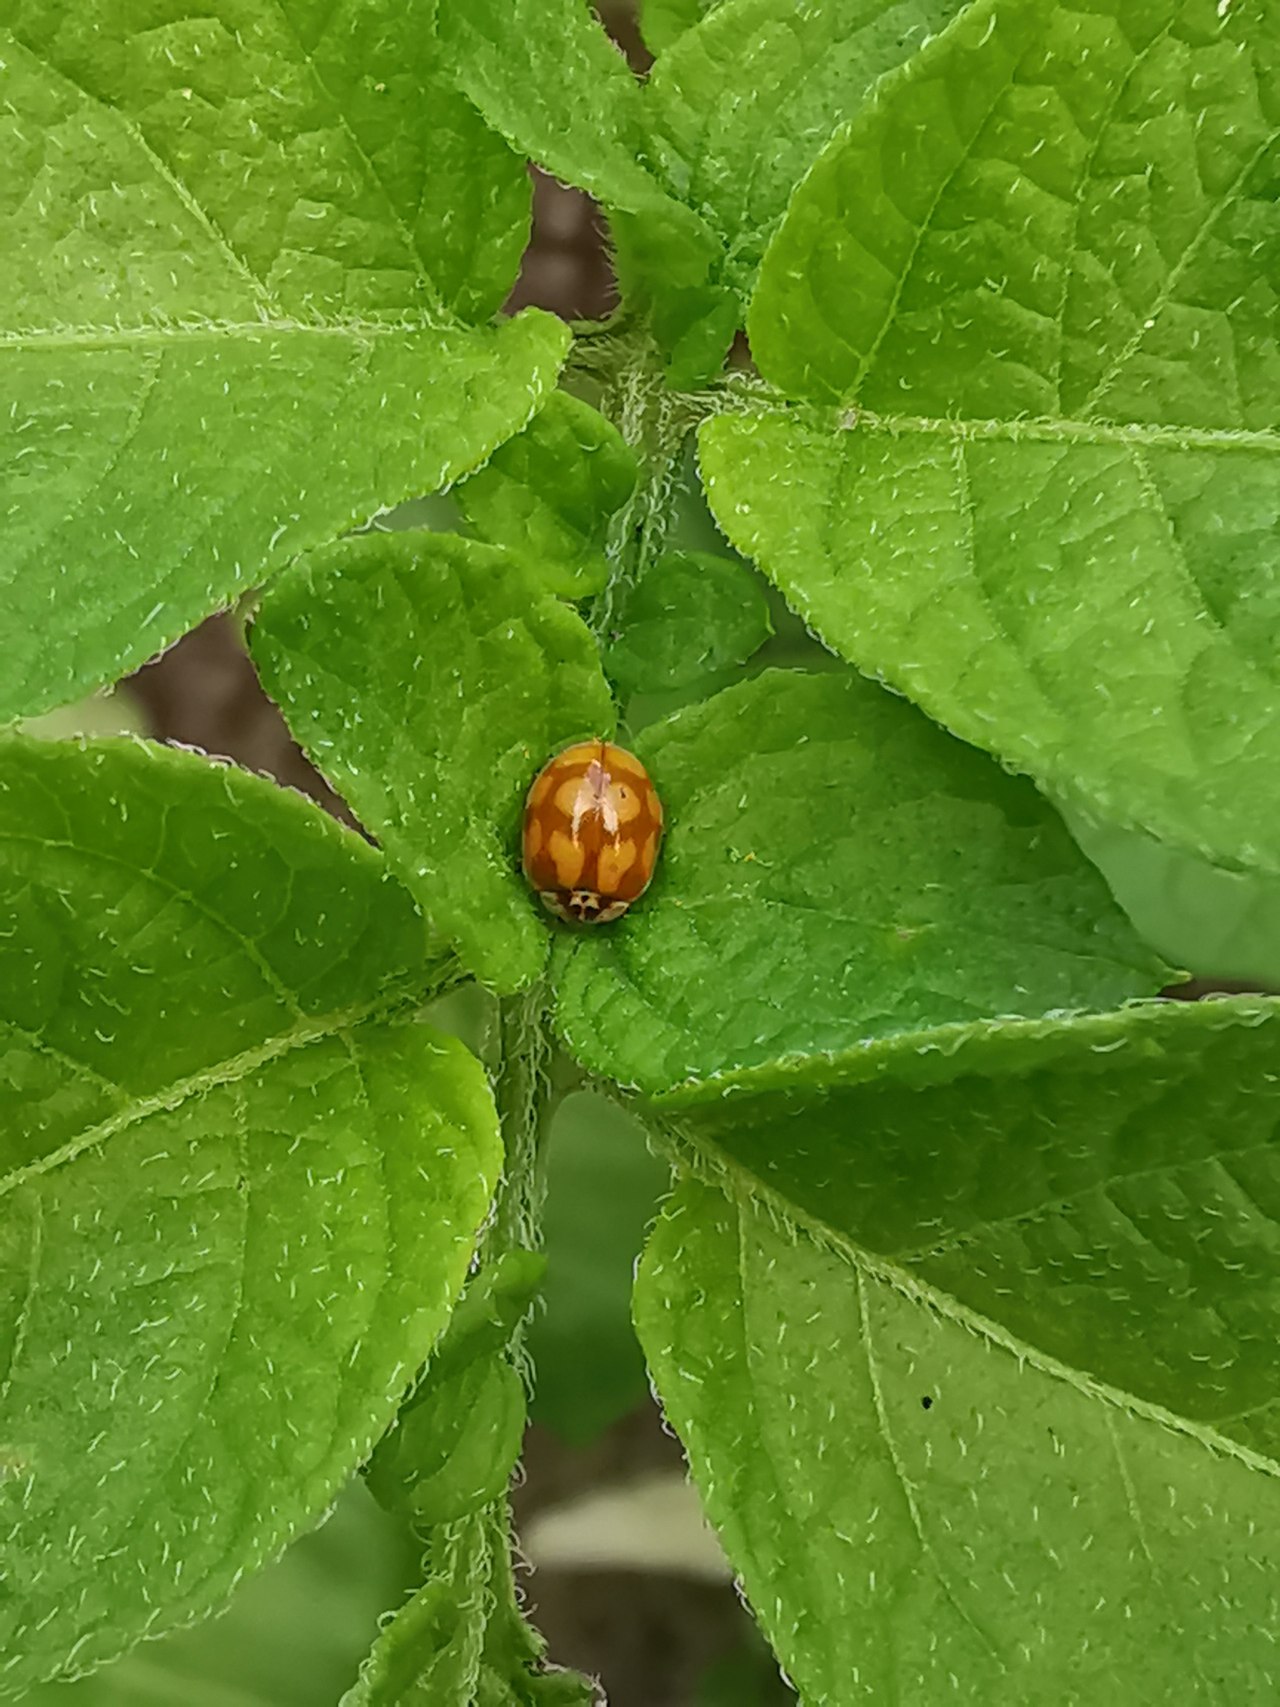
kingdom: Animalia
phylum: Arthropoda
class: Insecta
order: Coleoptera
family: Coccinellidae
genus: Adalia
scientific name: Adalia decempunctata
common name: Tiplettet mariehøne
